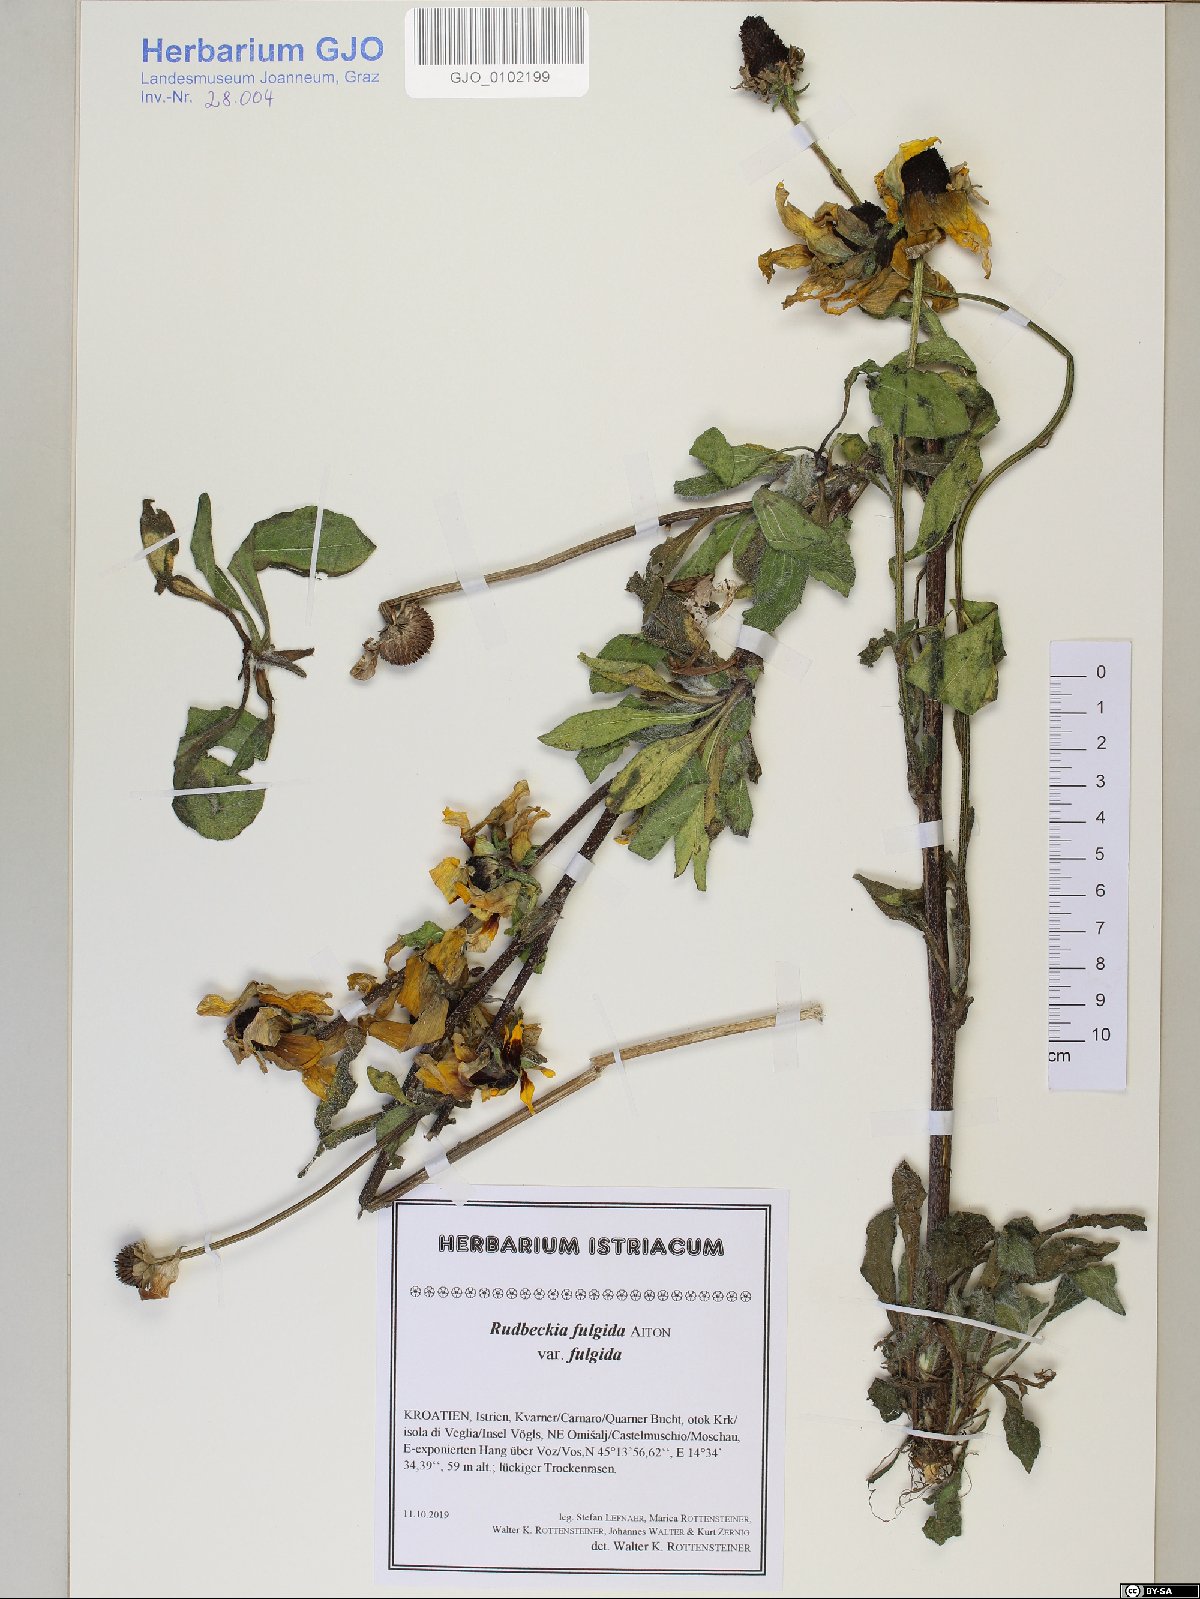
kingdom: Plantae
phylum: Tracheophyta
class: Magnoliopsida
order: Asterales
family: Asteraceae
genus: Rudbeckia
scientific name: Rudbeckia fulgida
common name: Perennial coneflower
